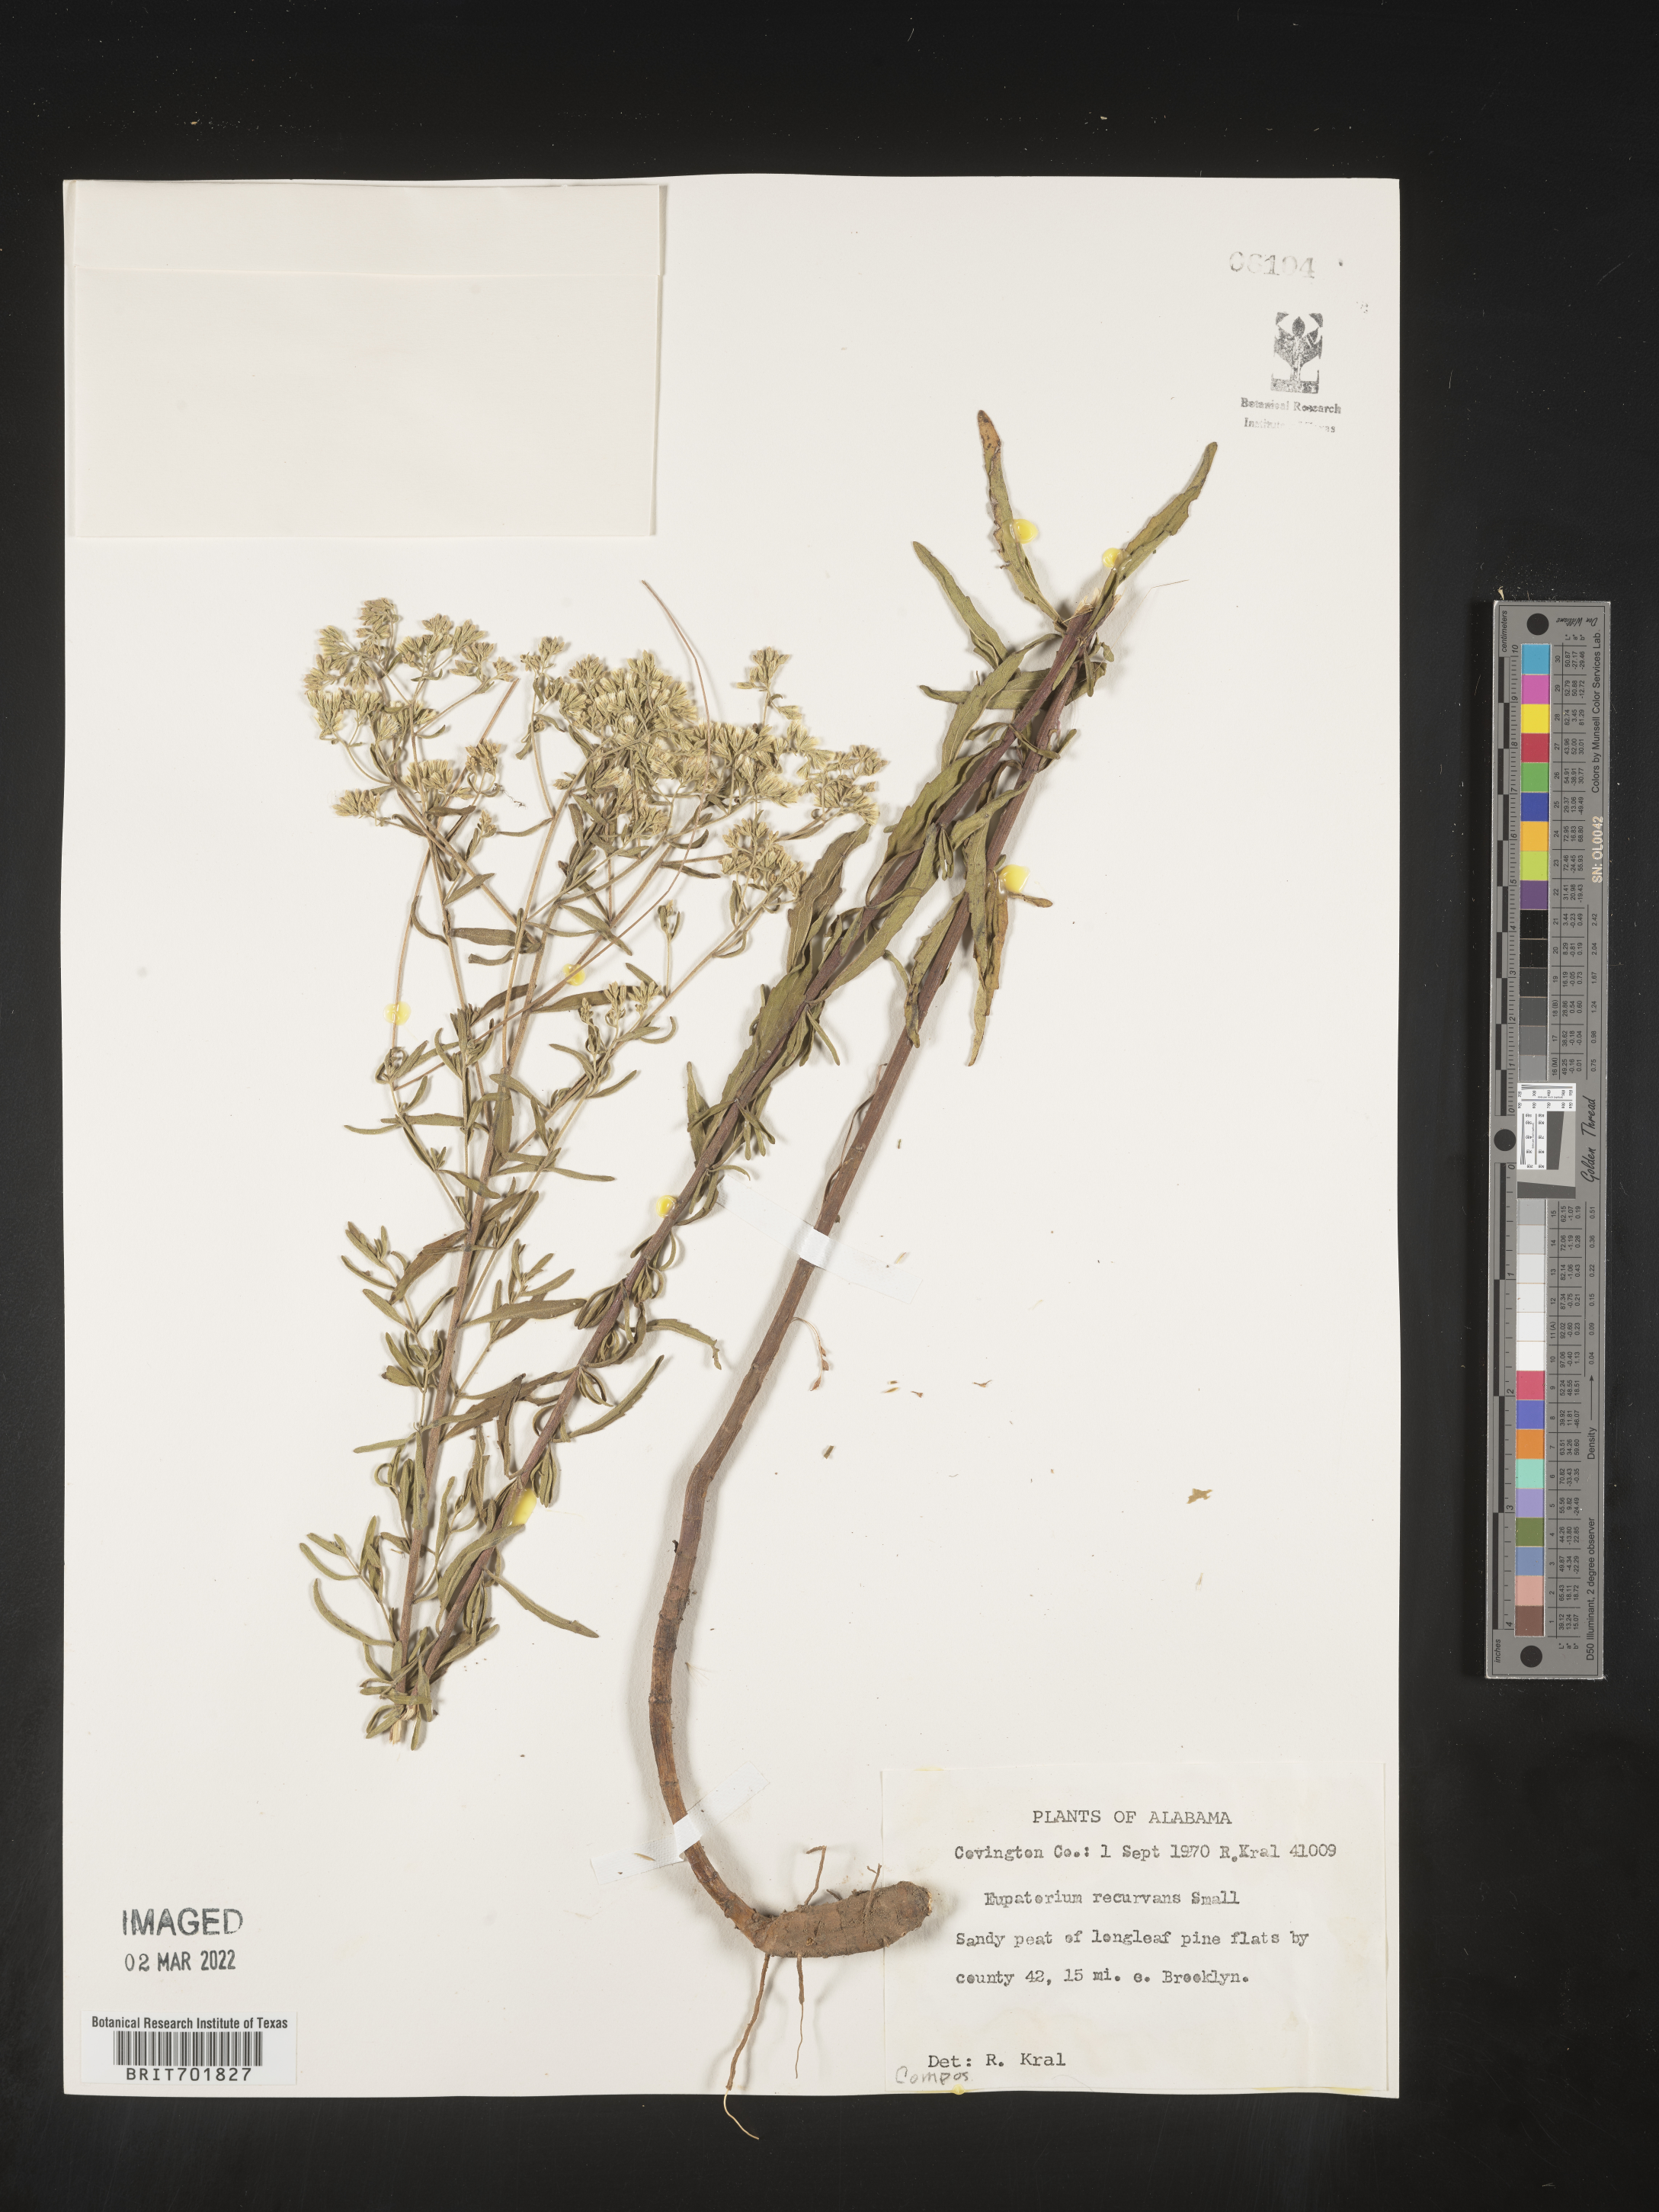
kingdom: Plantae
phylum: Tracheophyta
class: Magnoliopsida
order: Asterales
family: Asteraceae
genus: Eupatorium
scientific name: Eupatorium mohrii
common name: Mohr's thoroughwort
